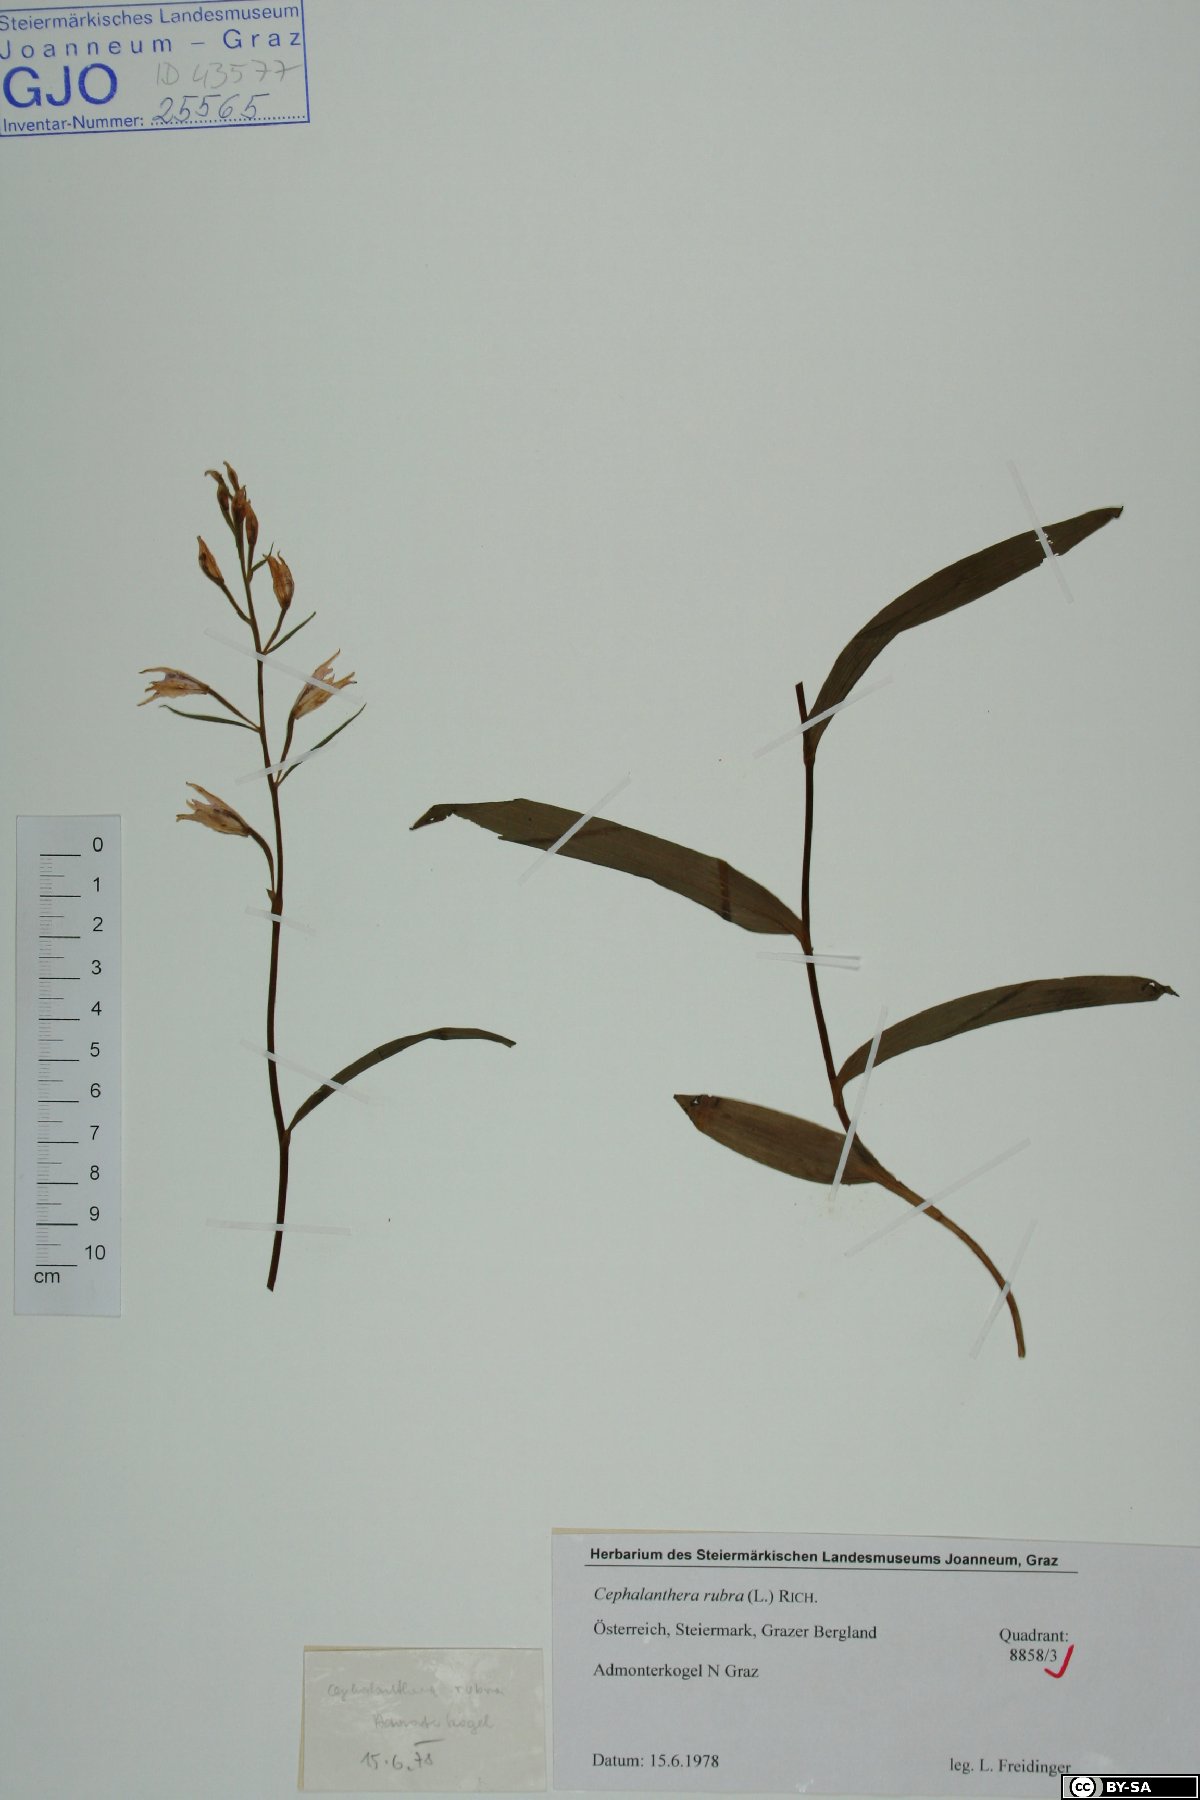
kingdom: Plantae
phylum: Tracheophyta
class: Liliopsida
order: Asparagales
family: Orchidaceae
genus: Cephalanthera
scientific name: Cephalanthera rubra
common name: Red helleborine
